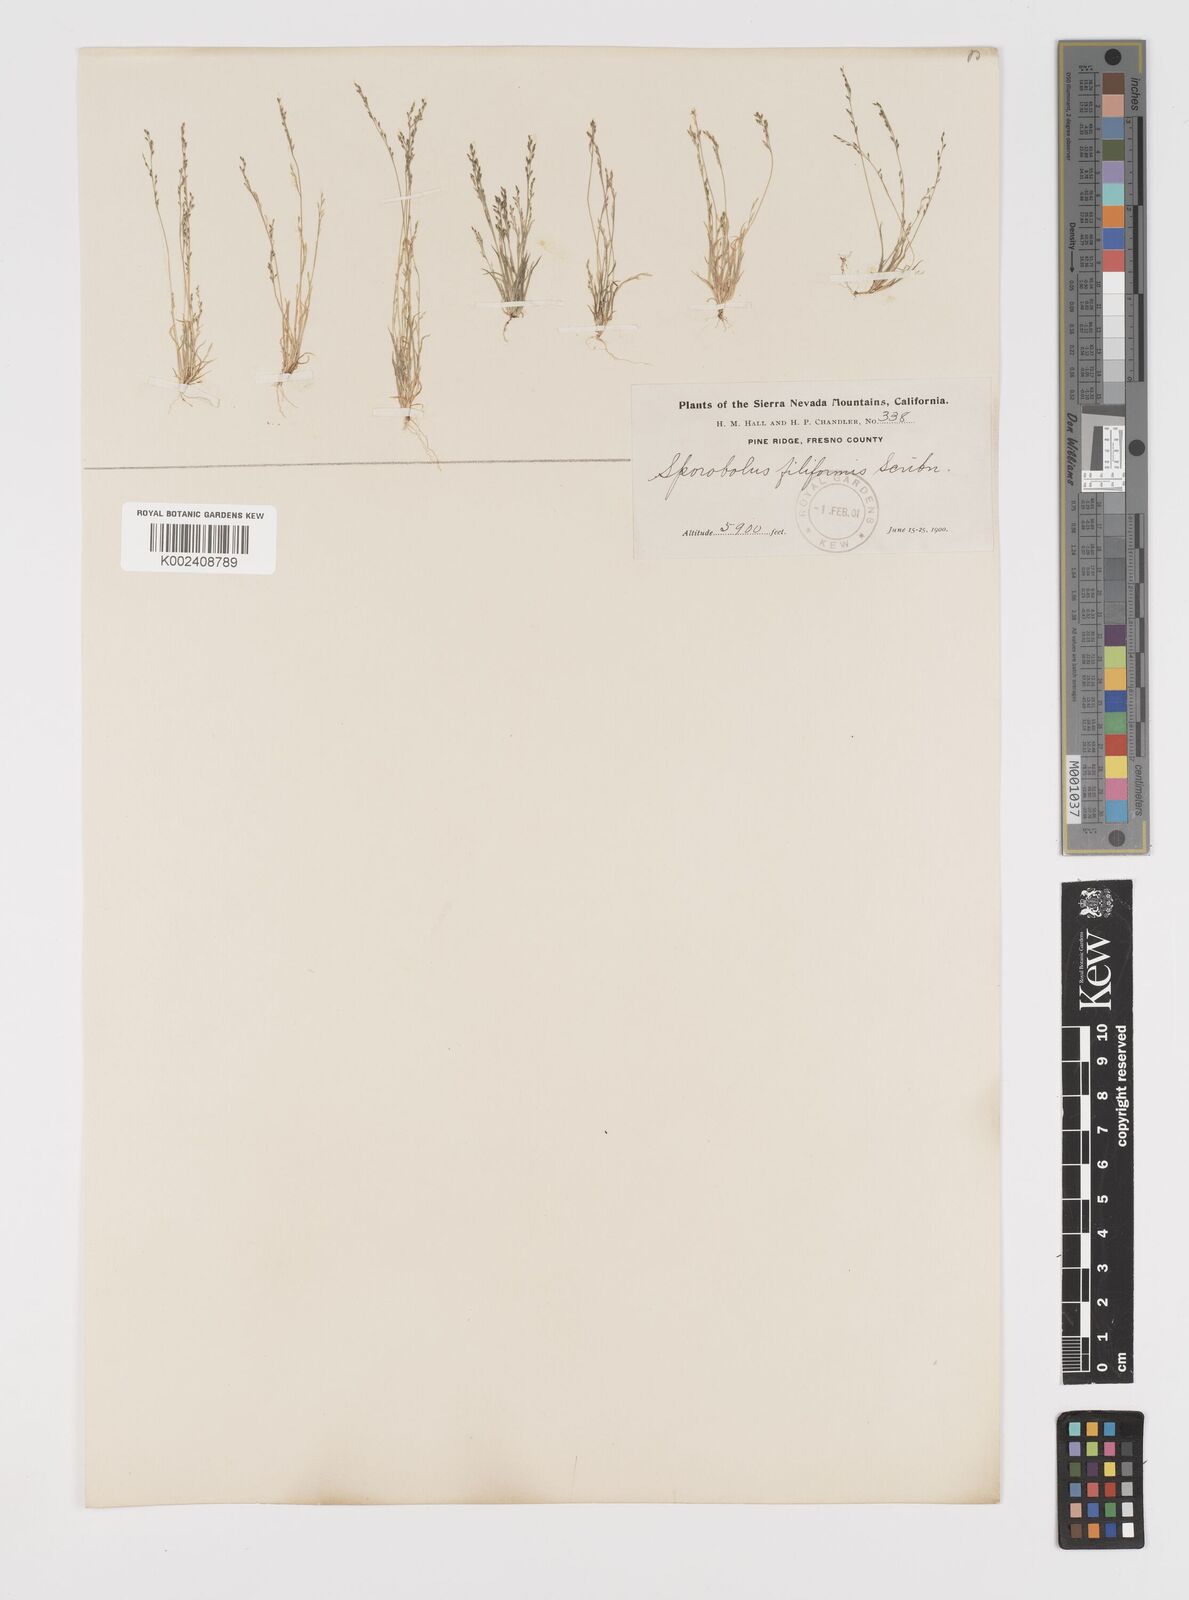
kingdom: Plantae
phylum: Tracheophyta
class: Liliopsida
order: Poales
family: Poaceae
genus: Leptochloa
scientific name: Leptochloa mucronata
